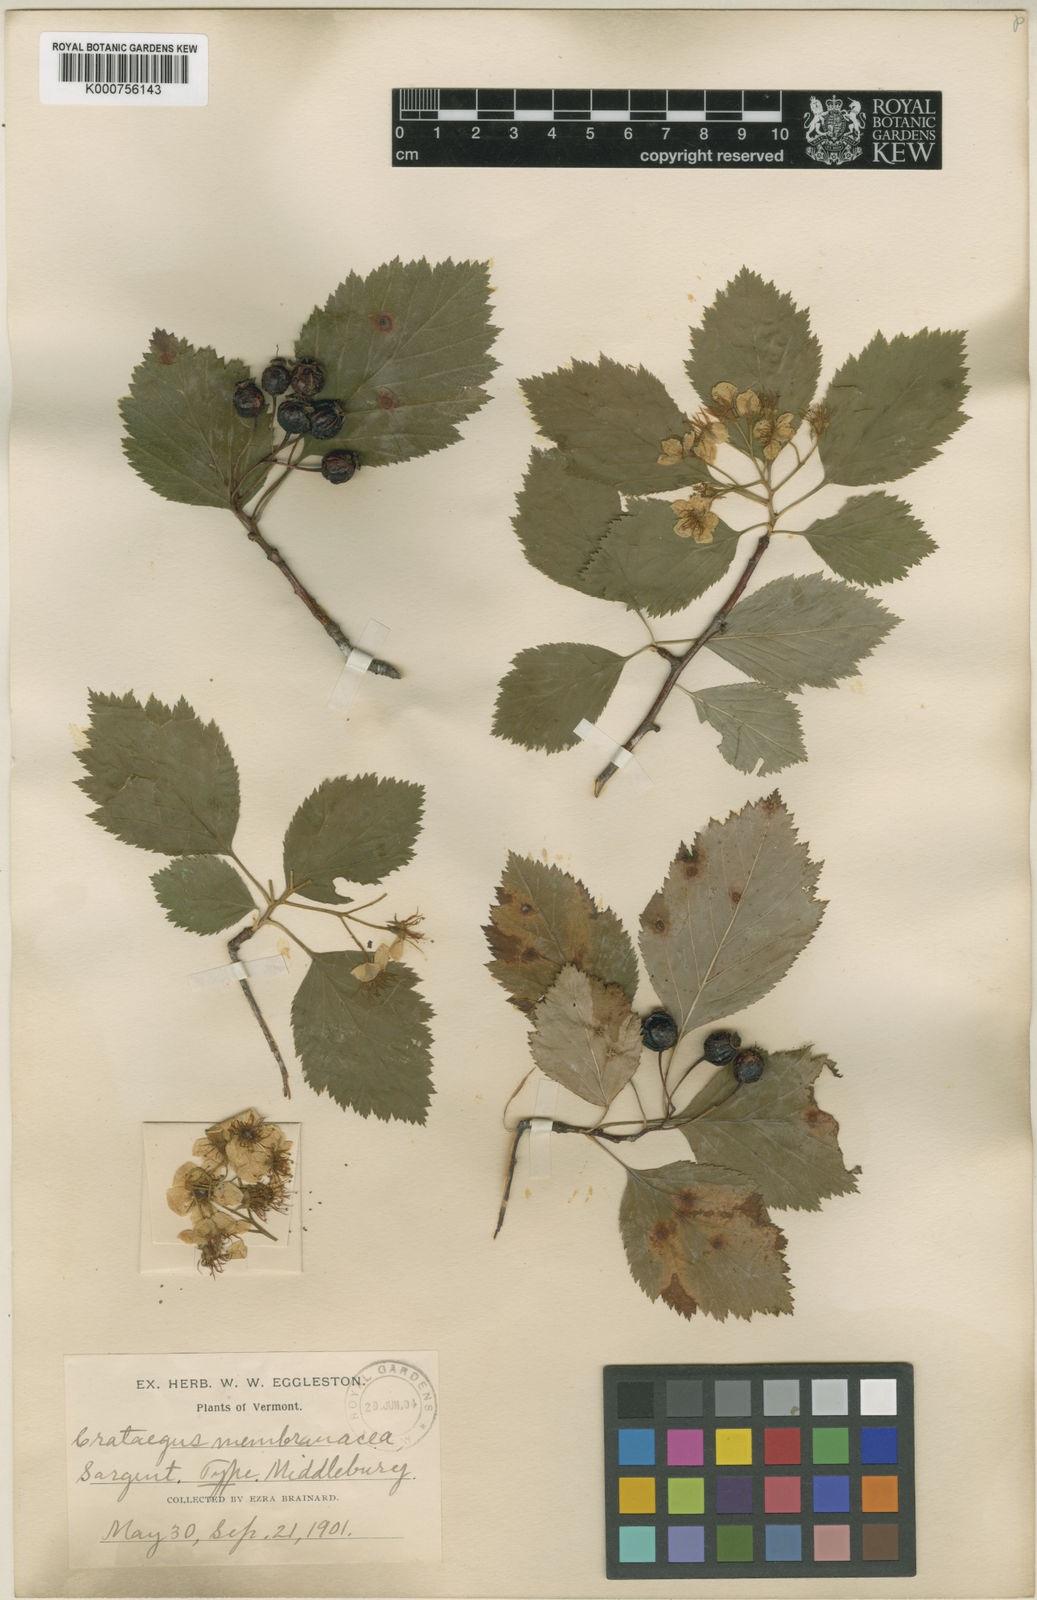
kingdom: Plantae
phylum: Tracheophyta
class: Magnoliopsida
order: Rosales
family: Rosaceae
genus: Crataegus
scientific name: Crataegus succulenta
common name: Fleshy hawthorn
